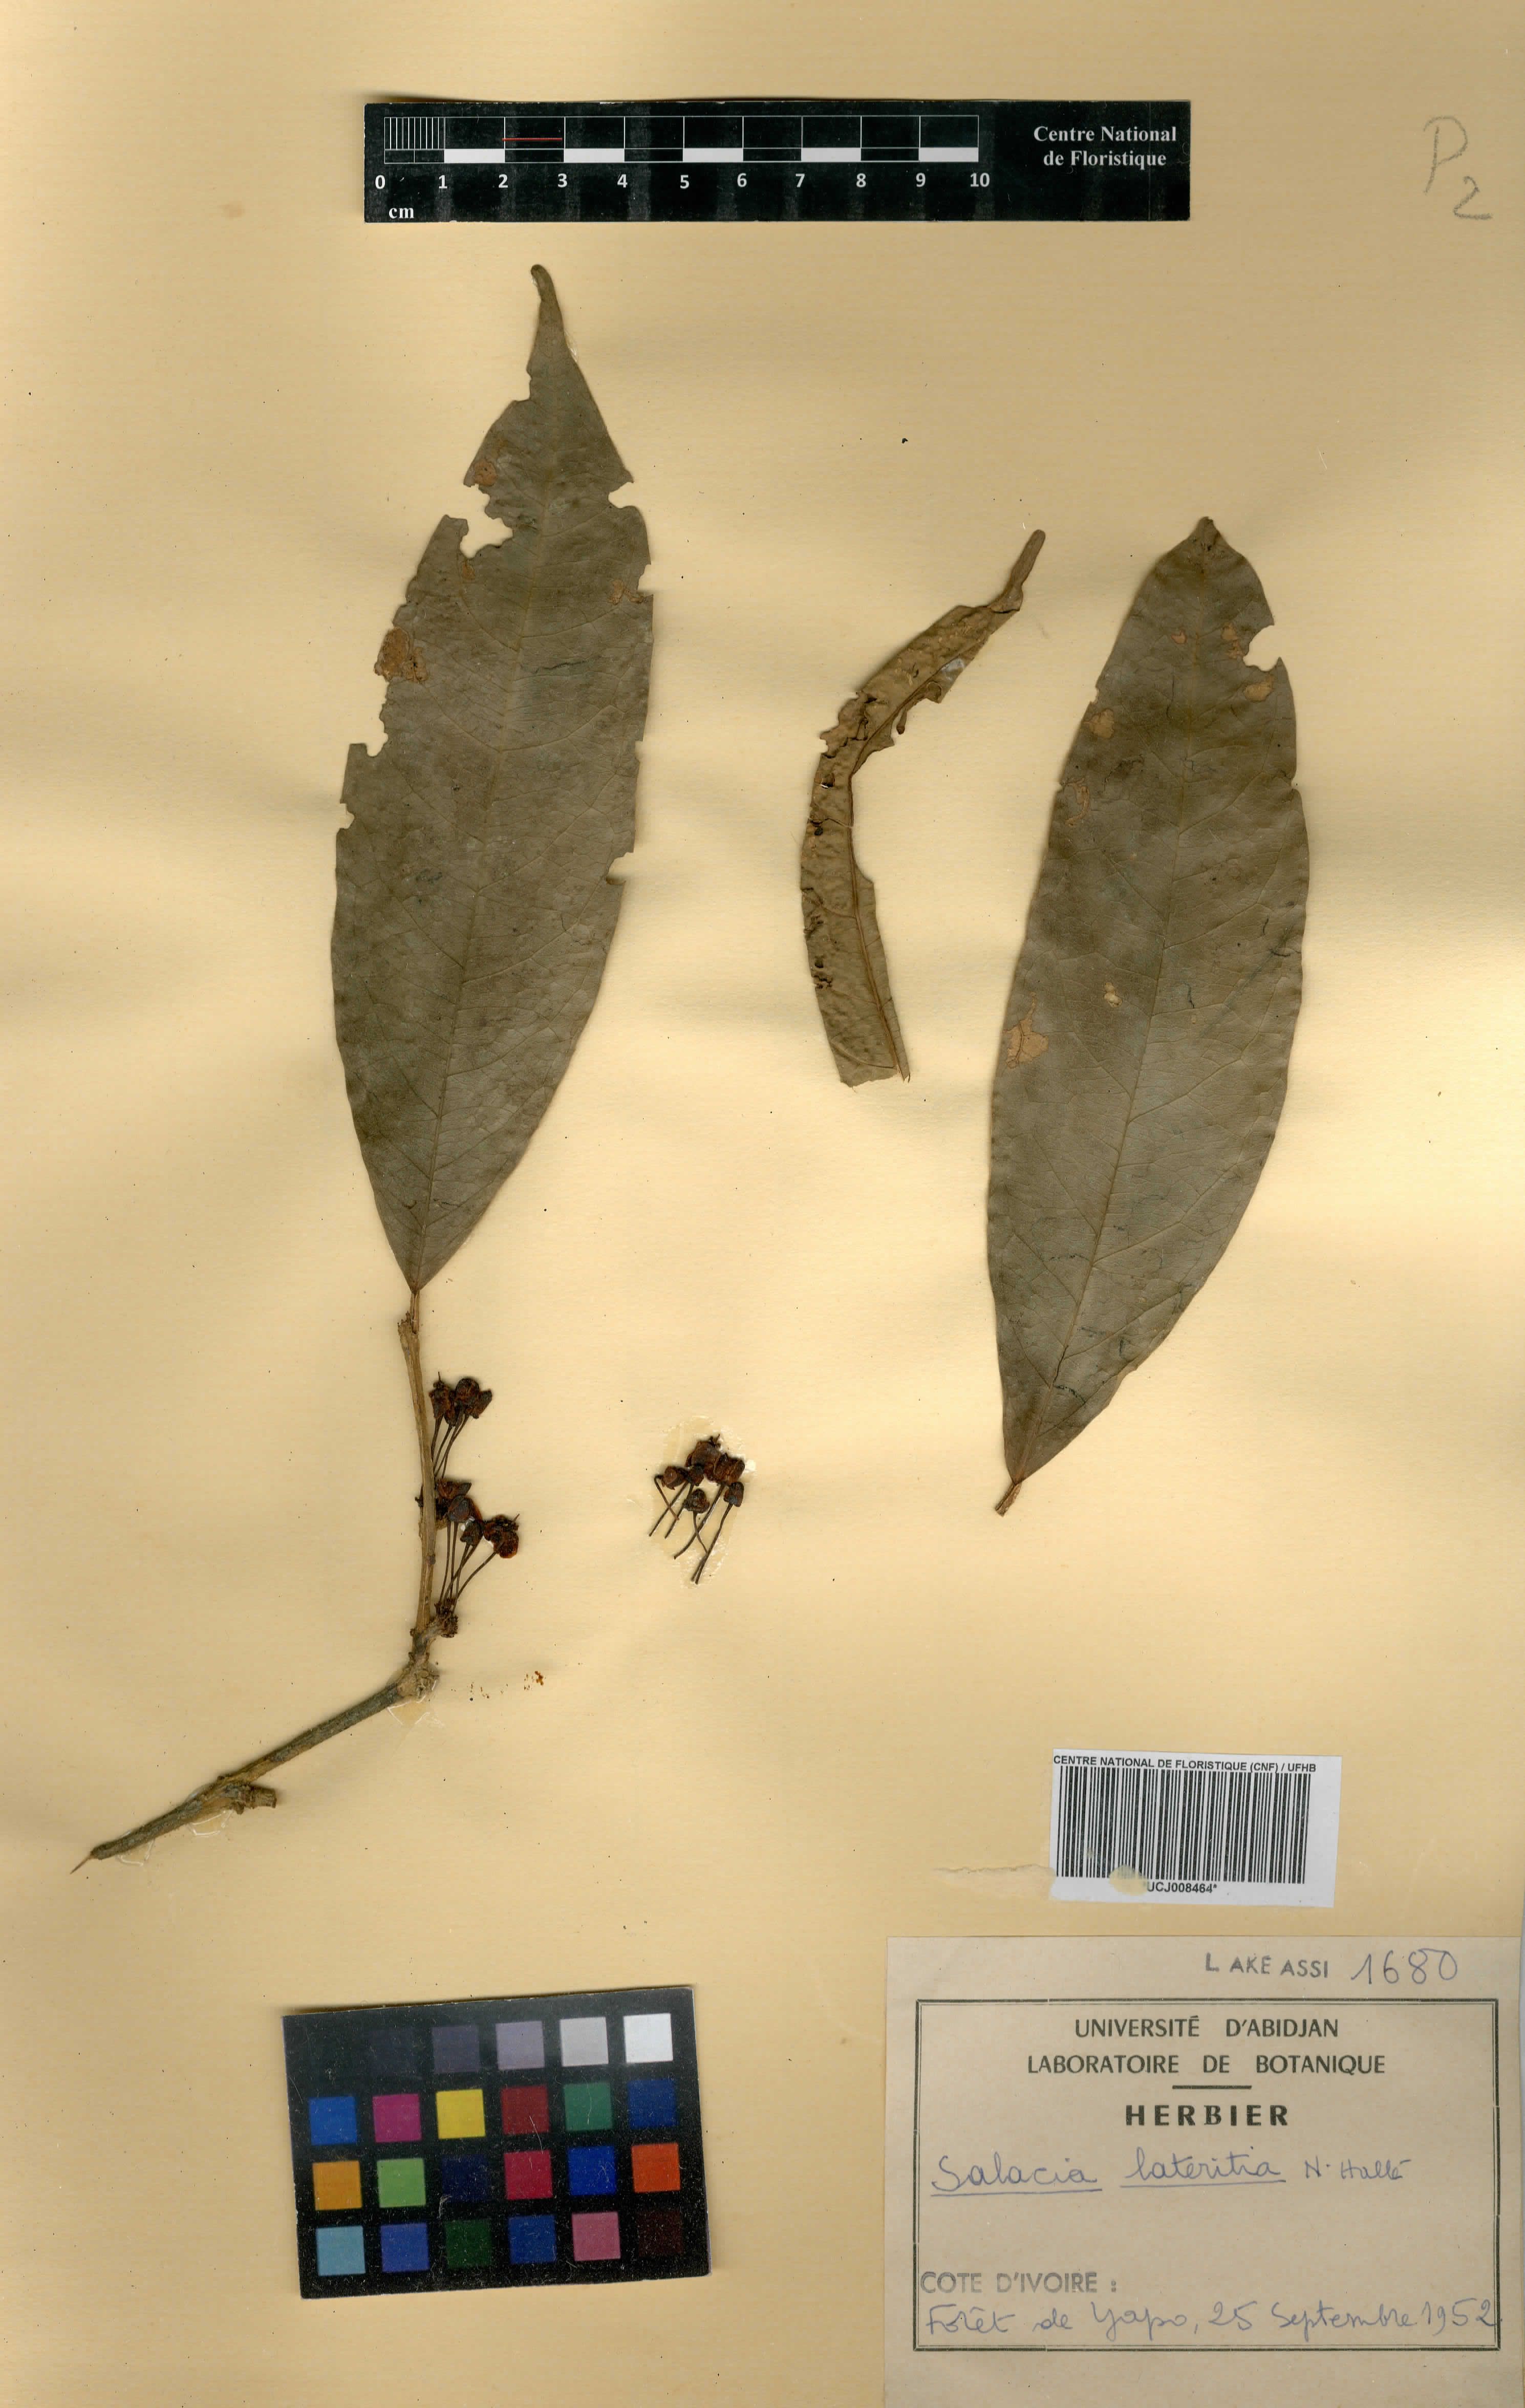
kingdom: Plantae
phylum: Tracheophyta
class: Magnoliopsida
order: Celastrales
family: Celastraceae
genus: Salacia
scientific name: Salacia lateritia
